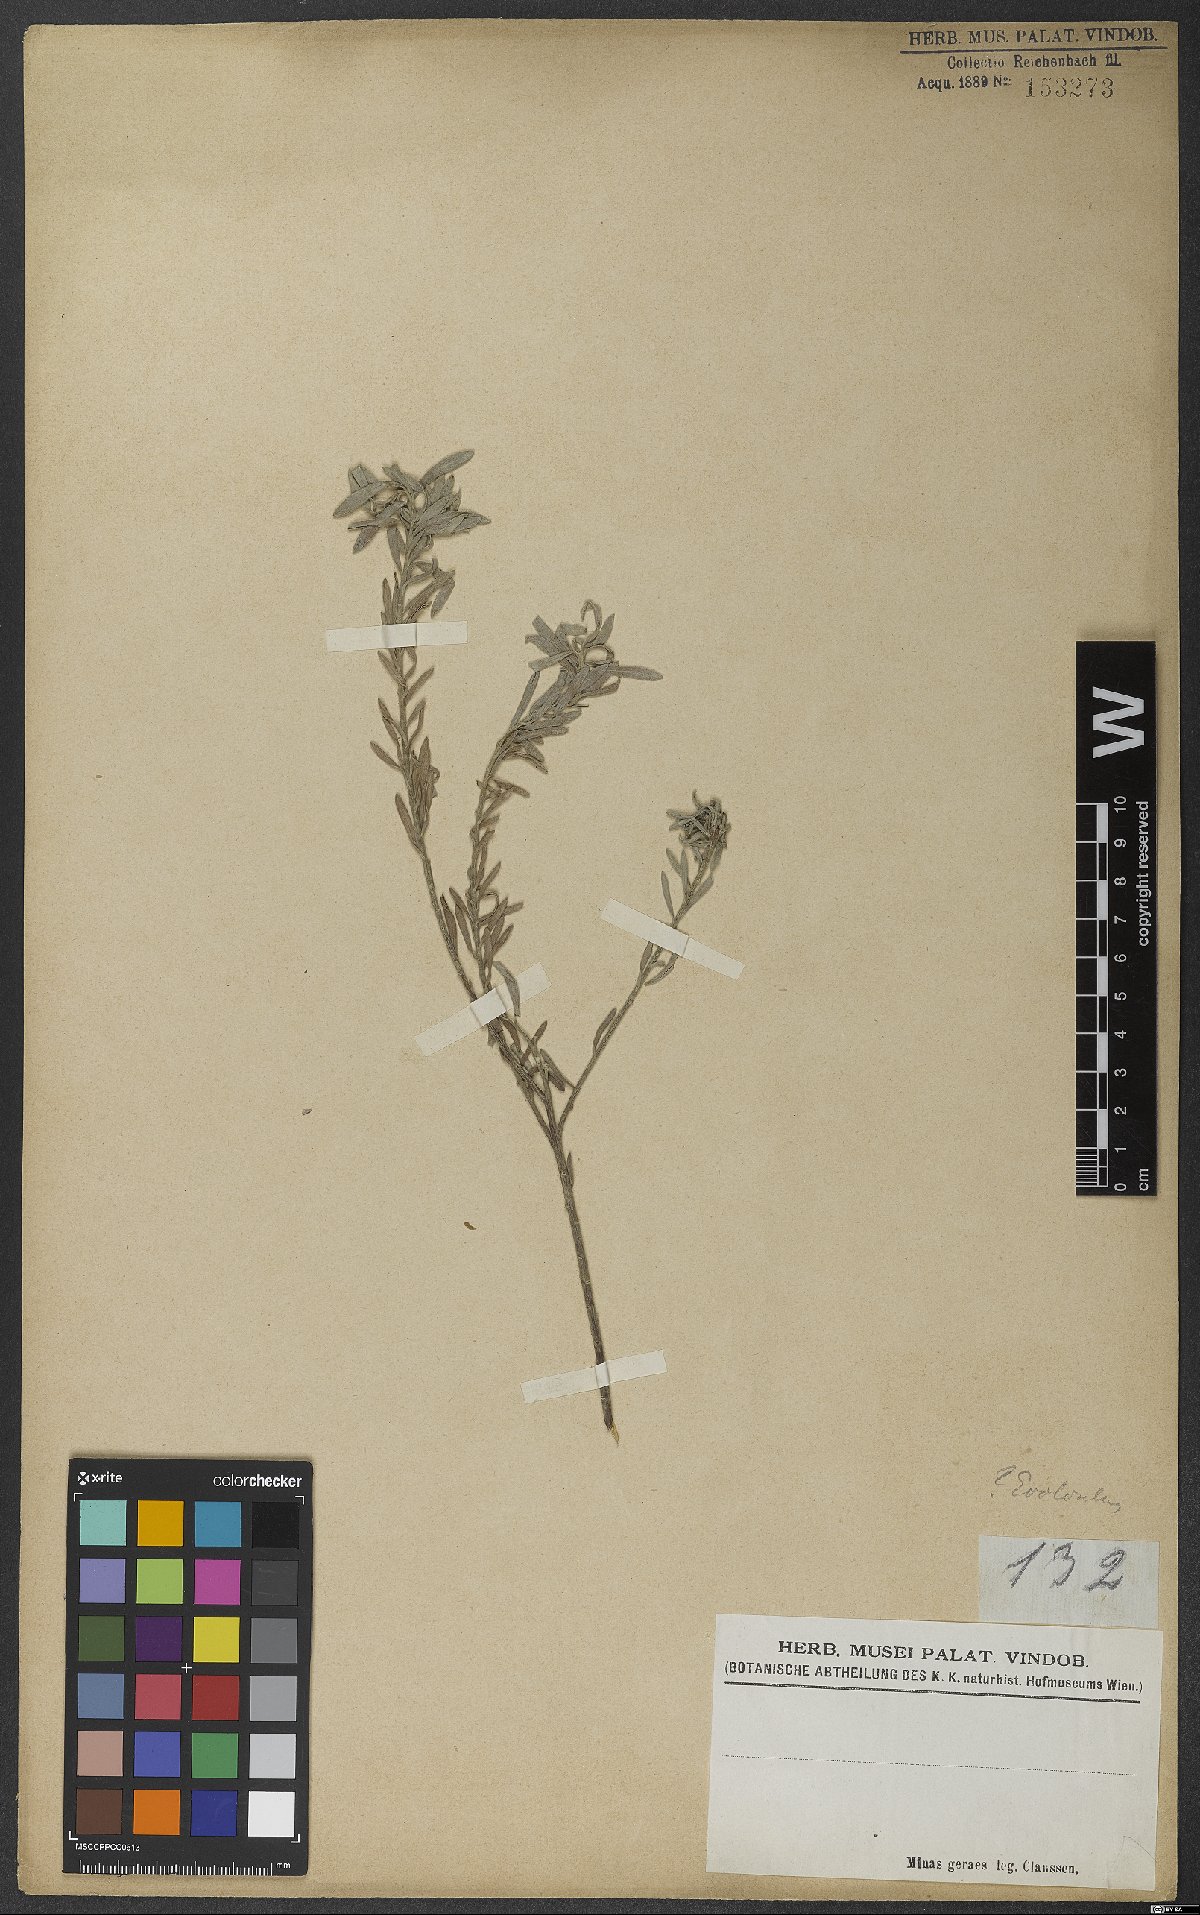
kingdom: Plantae
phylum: Tracheophyta
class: Magnoliopsida
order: Solanales
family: Convolvulaceae
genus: Evolvulus
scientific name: Evolvulus
